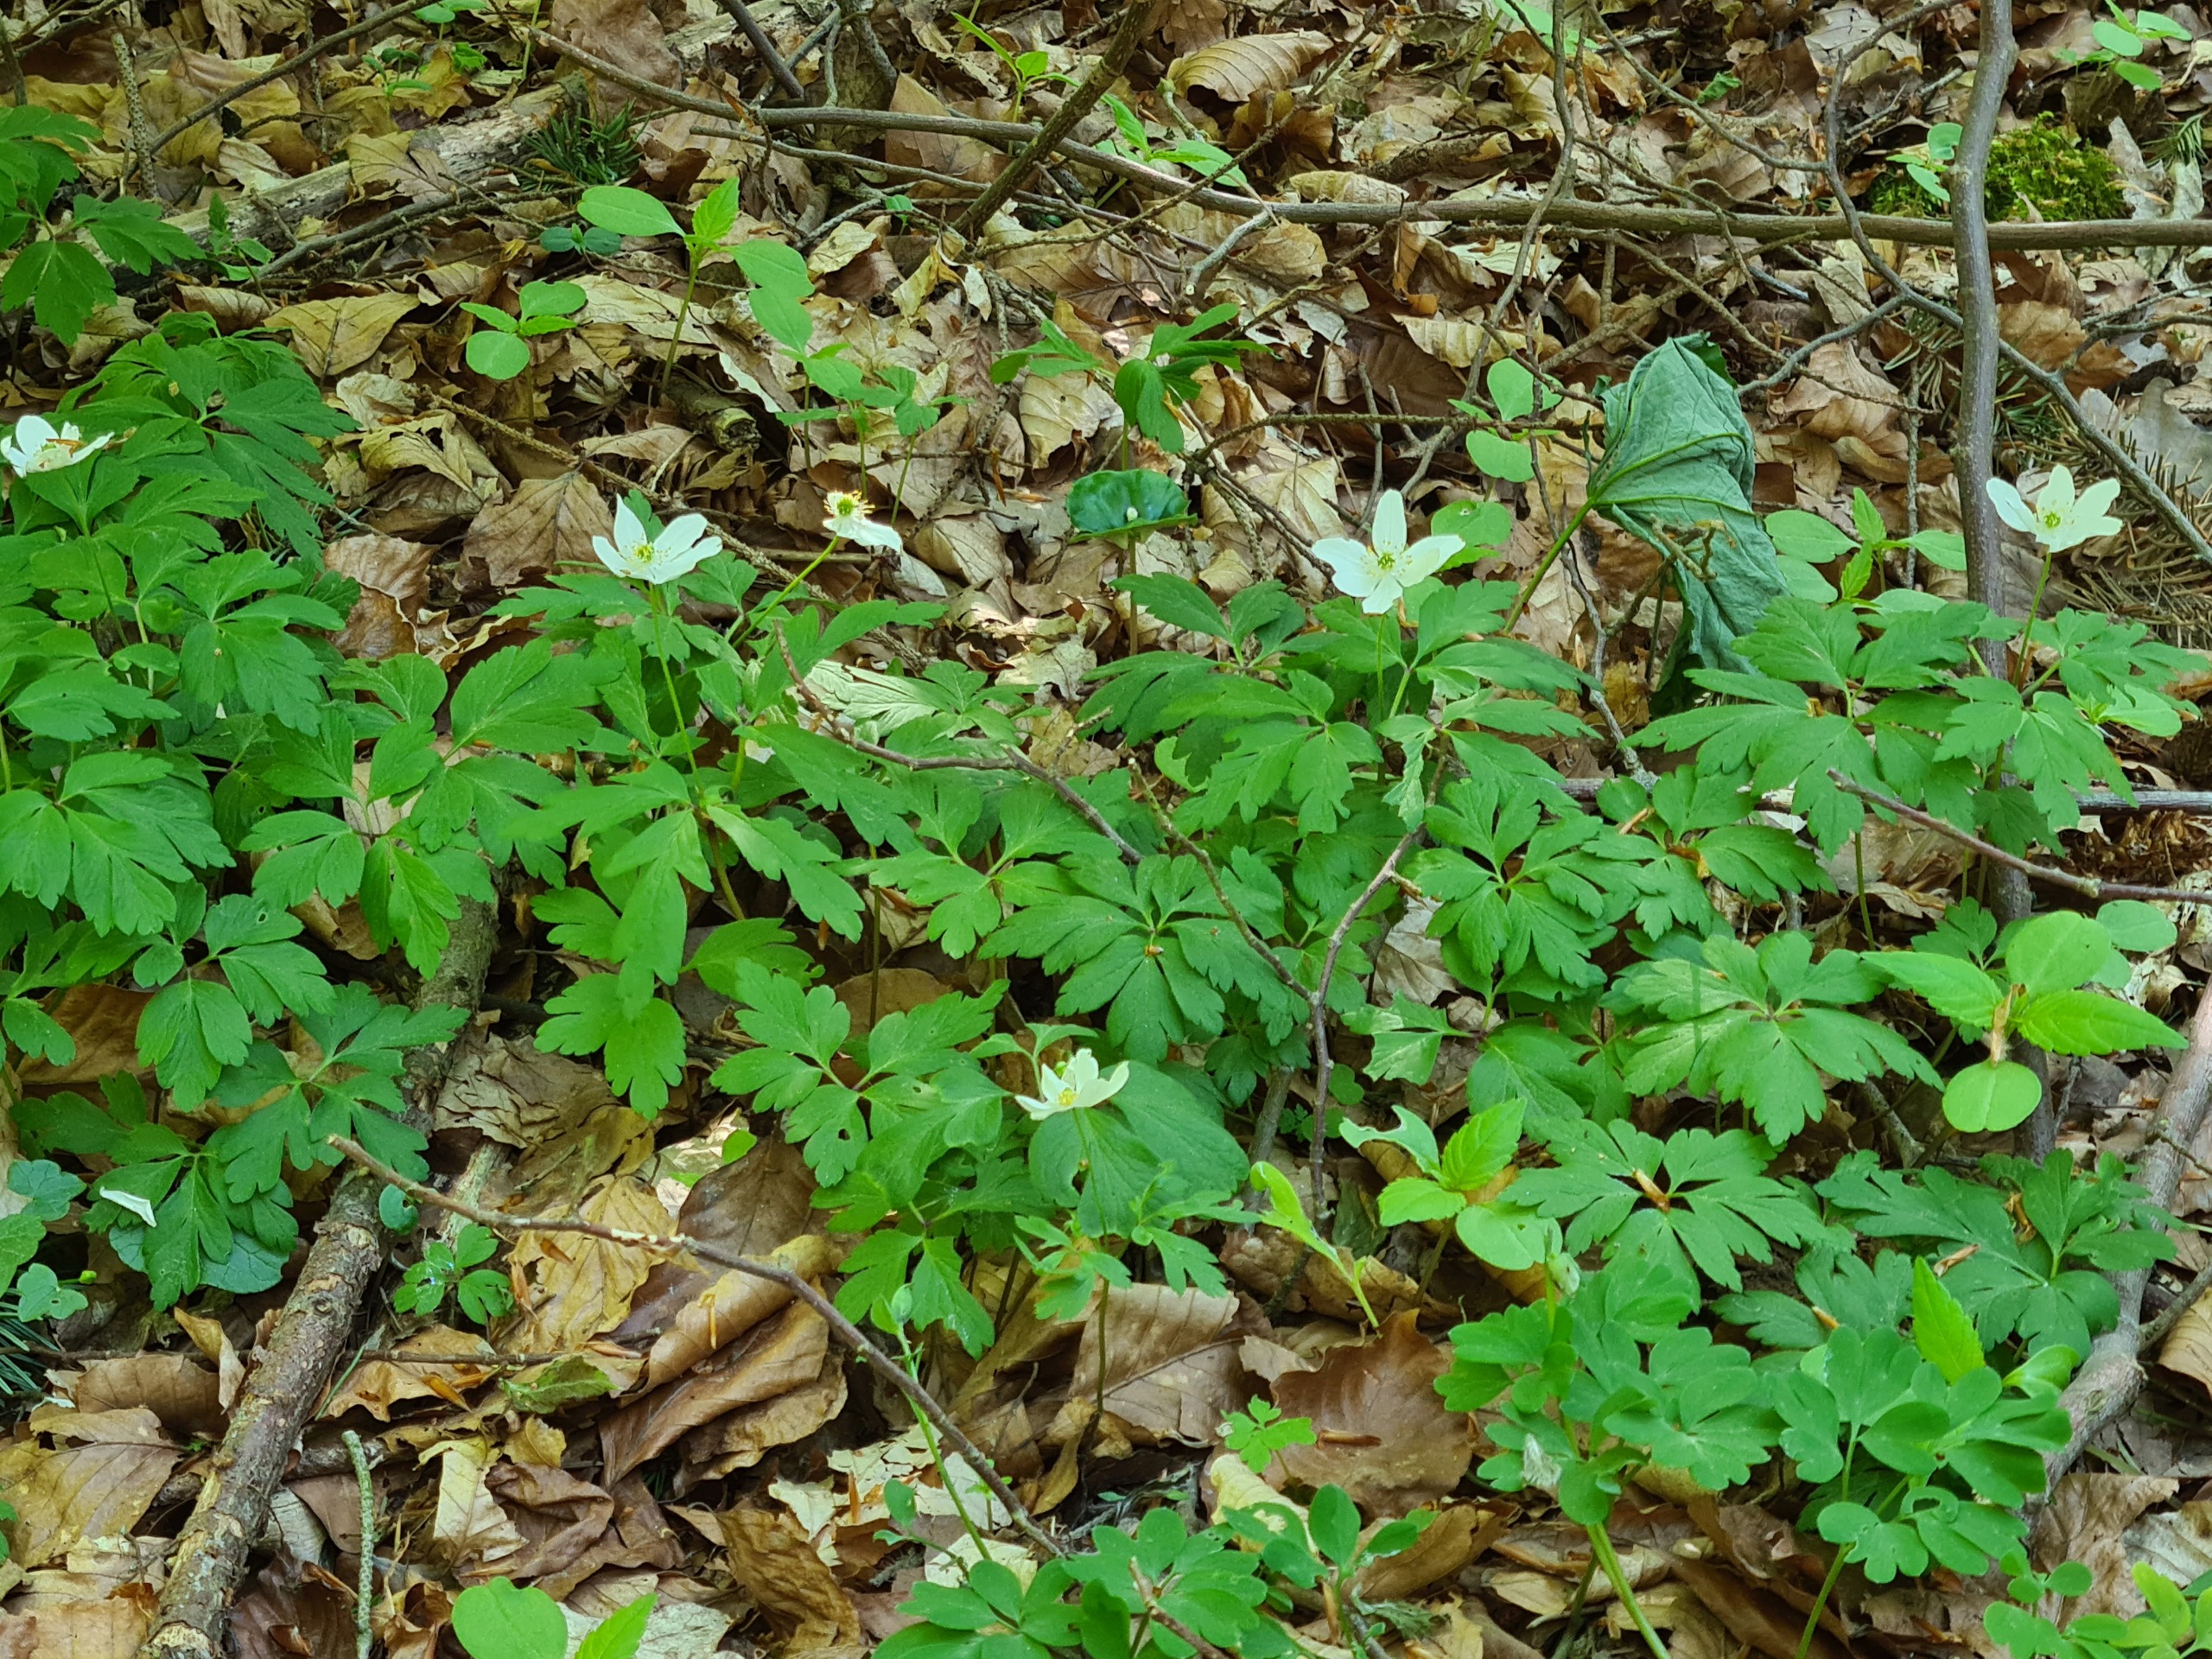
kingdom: Plantae
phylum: Tracheophyta
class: Magnoliopsida
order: Ranunculales
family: Ranunculaceae
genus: Anemone
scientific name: Anemone nemorosa
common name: Hvid anemone
